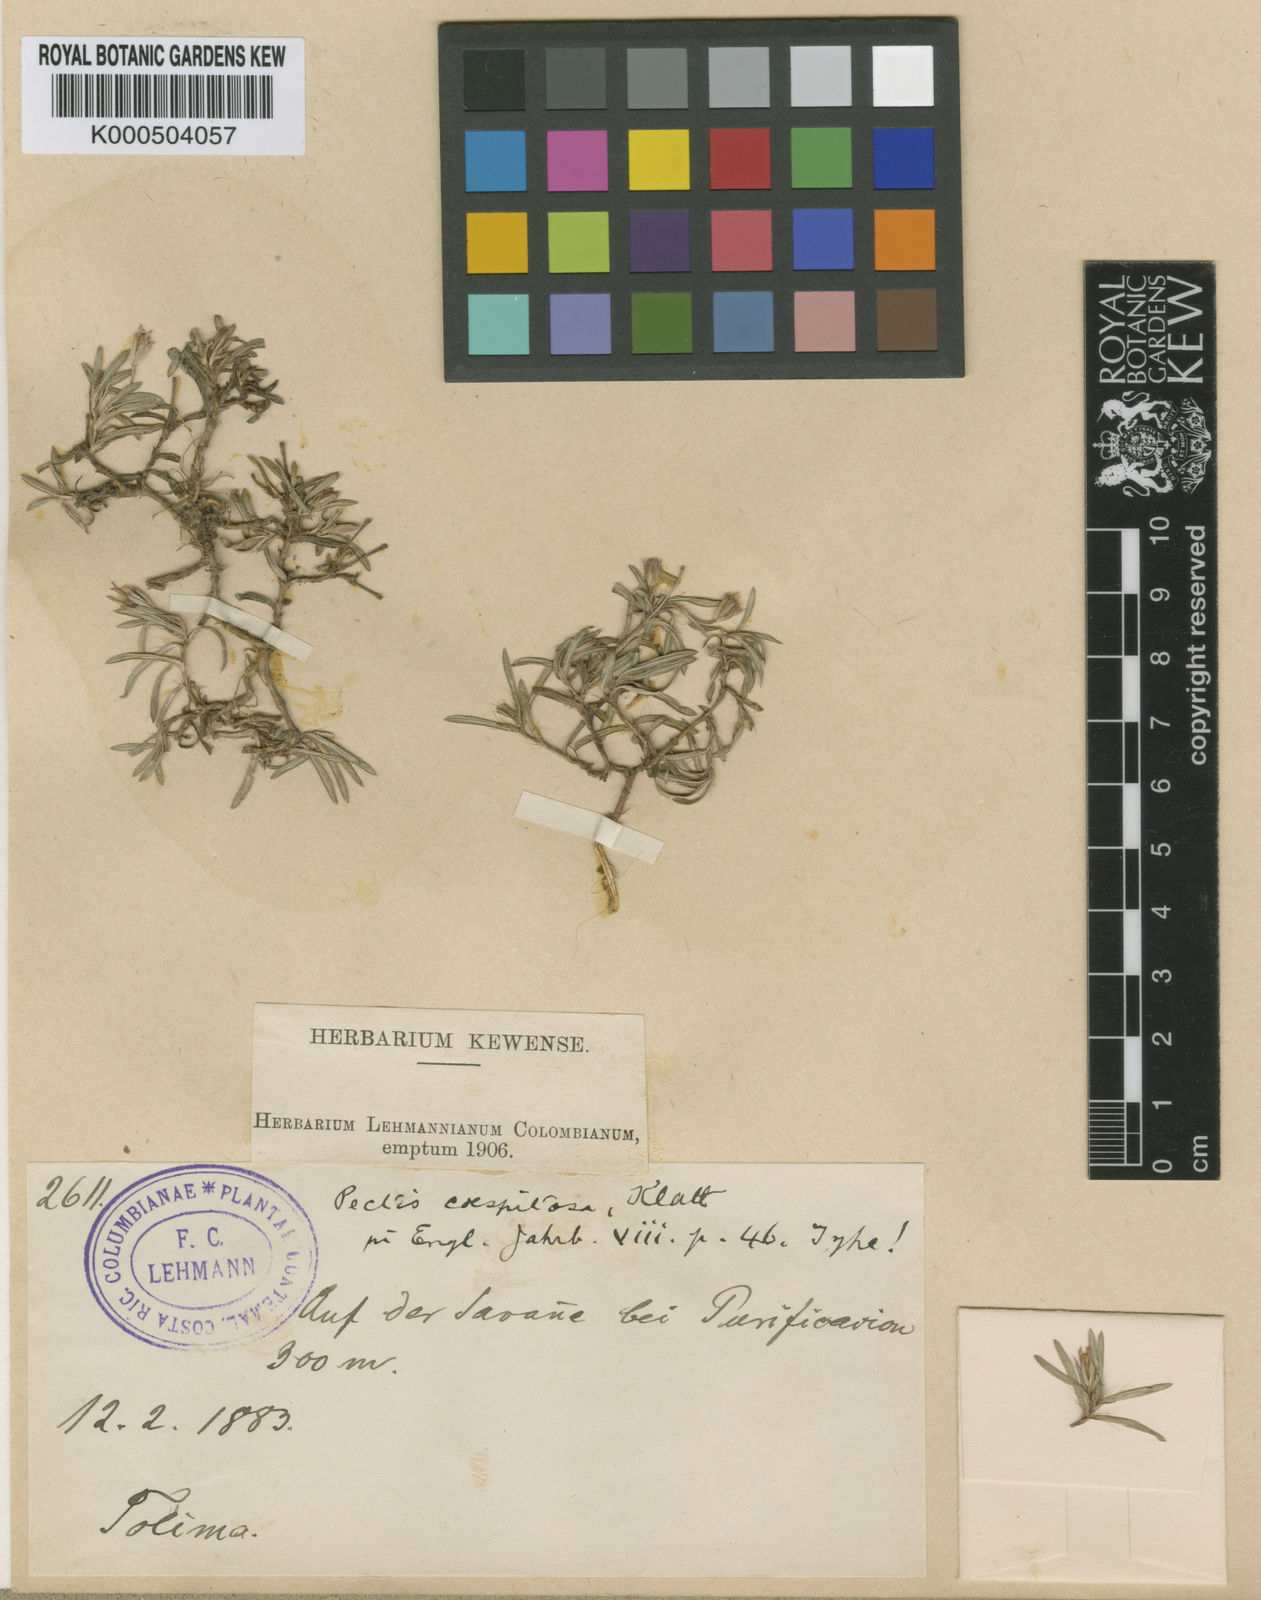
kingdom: Plantae
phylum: Tracheophyta
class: Magnoliopsida
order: Asterales
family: Asteraceae
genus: Pectis
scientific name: Pectis caespitosa
